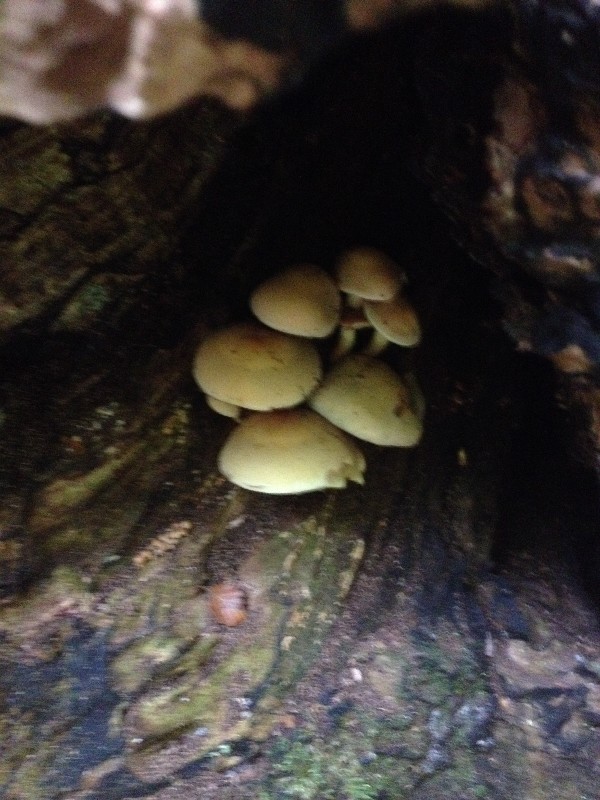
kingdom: Fungi
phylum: Basidiomycota
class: Agaricomycetes
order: Agaricales
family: Strophariaceae
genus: Hypholoma
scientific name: Hypholoma fasciculare
